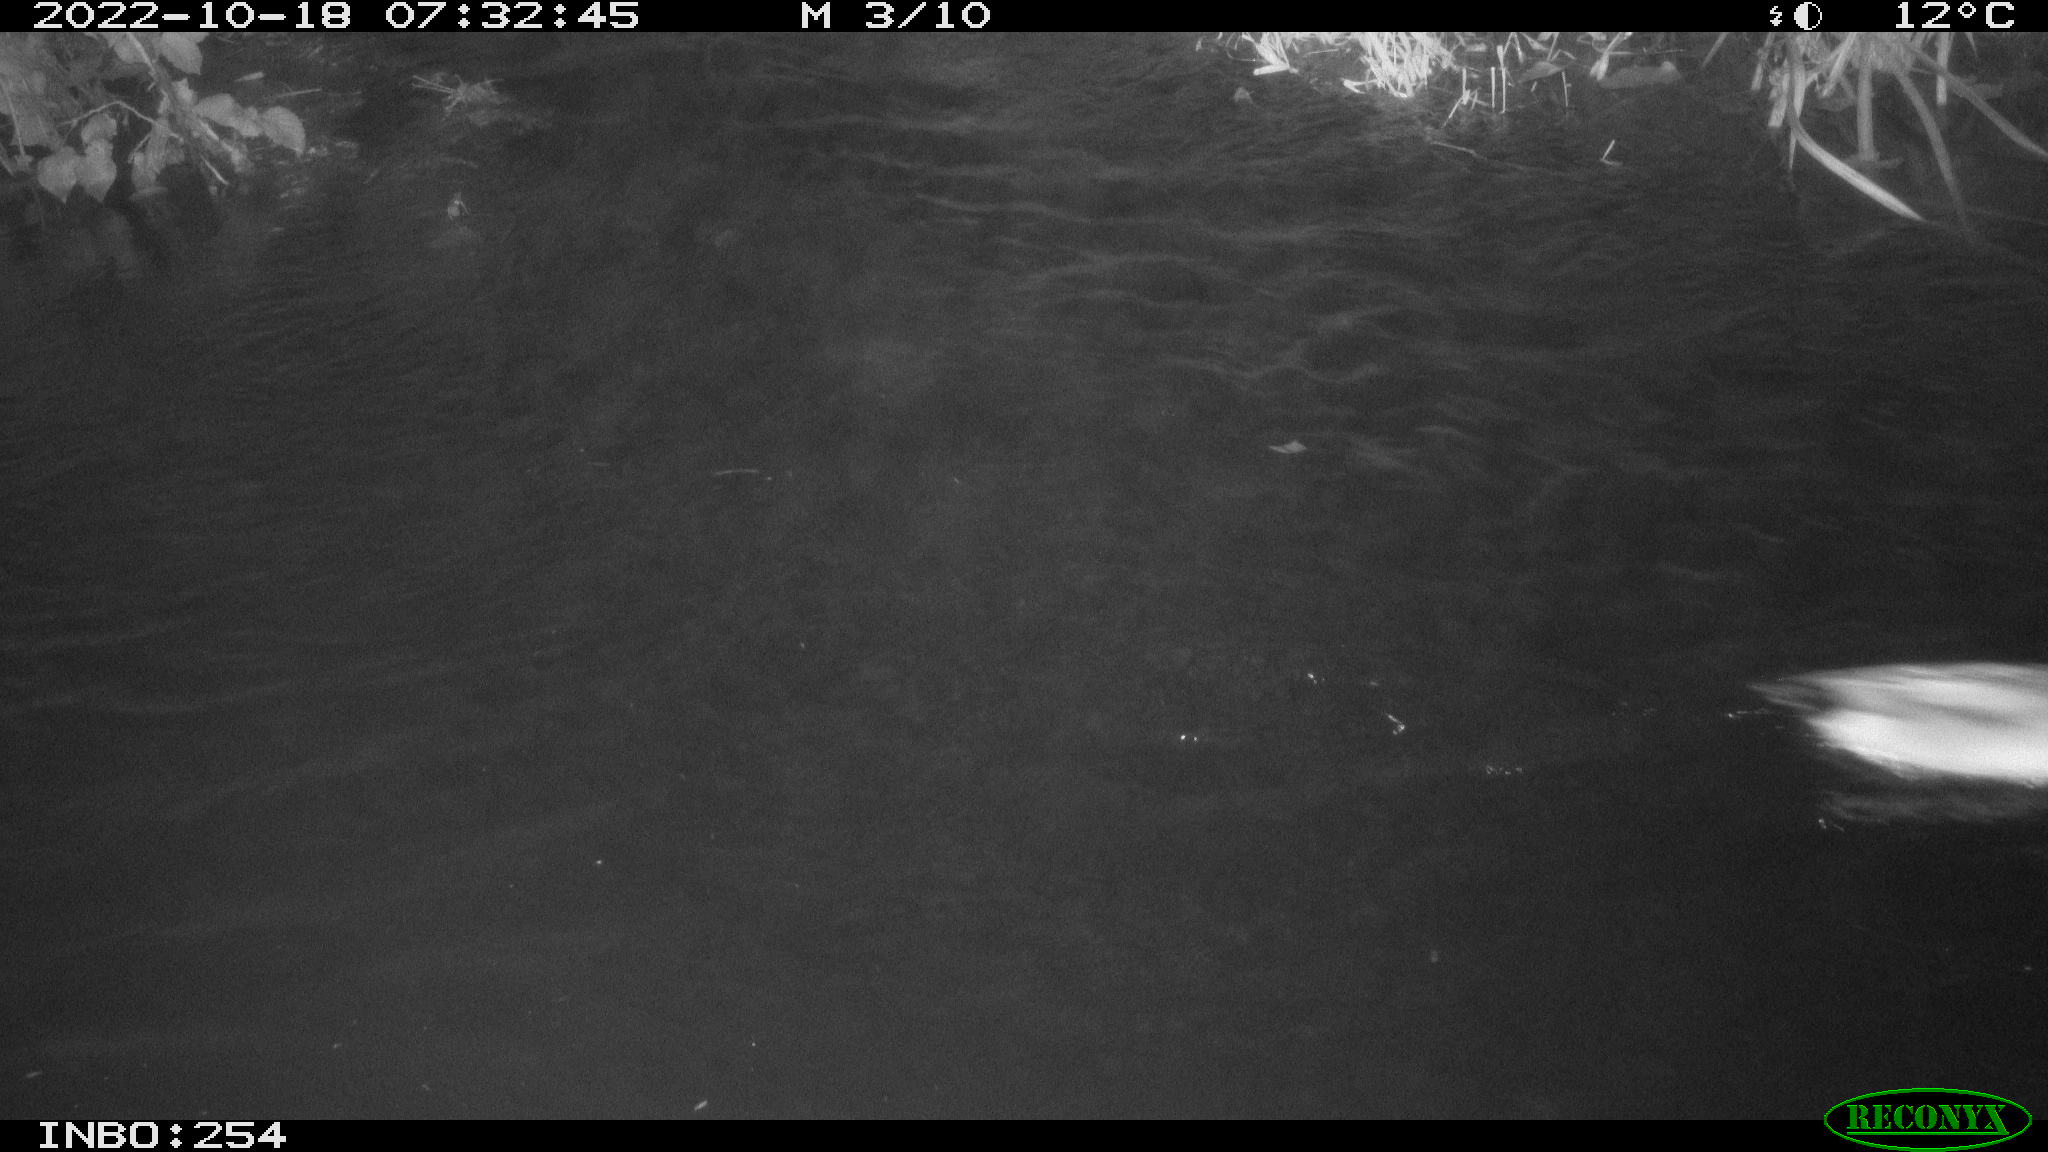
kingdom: Animalia
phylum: Chordata
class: Aves
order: Anseriformes
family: Anatidae
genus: Anas
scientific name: Anas
